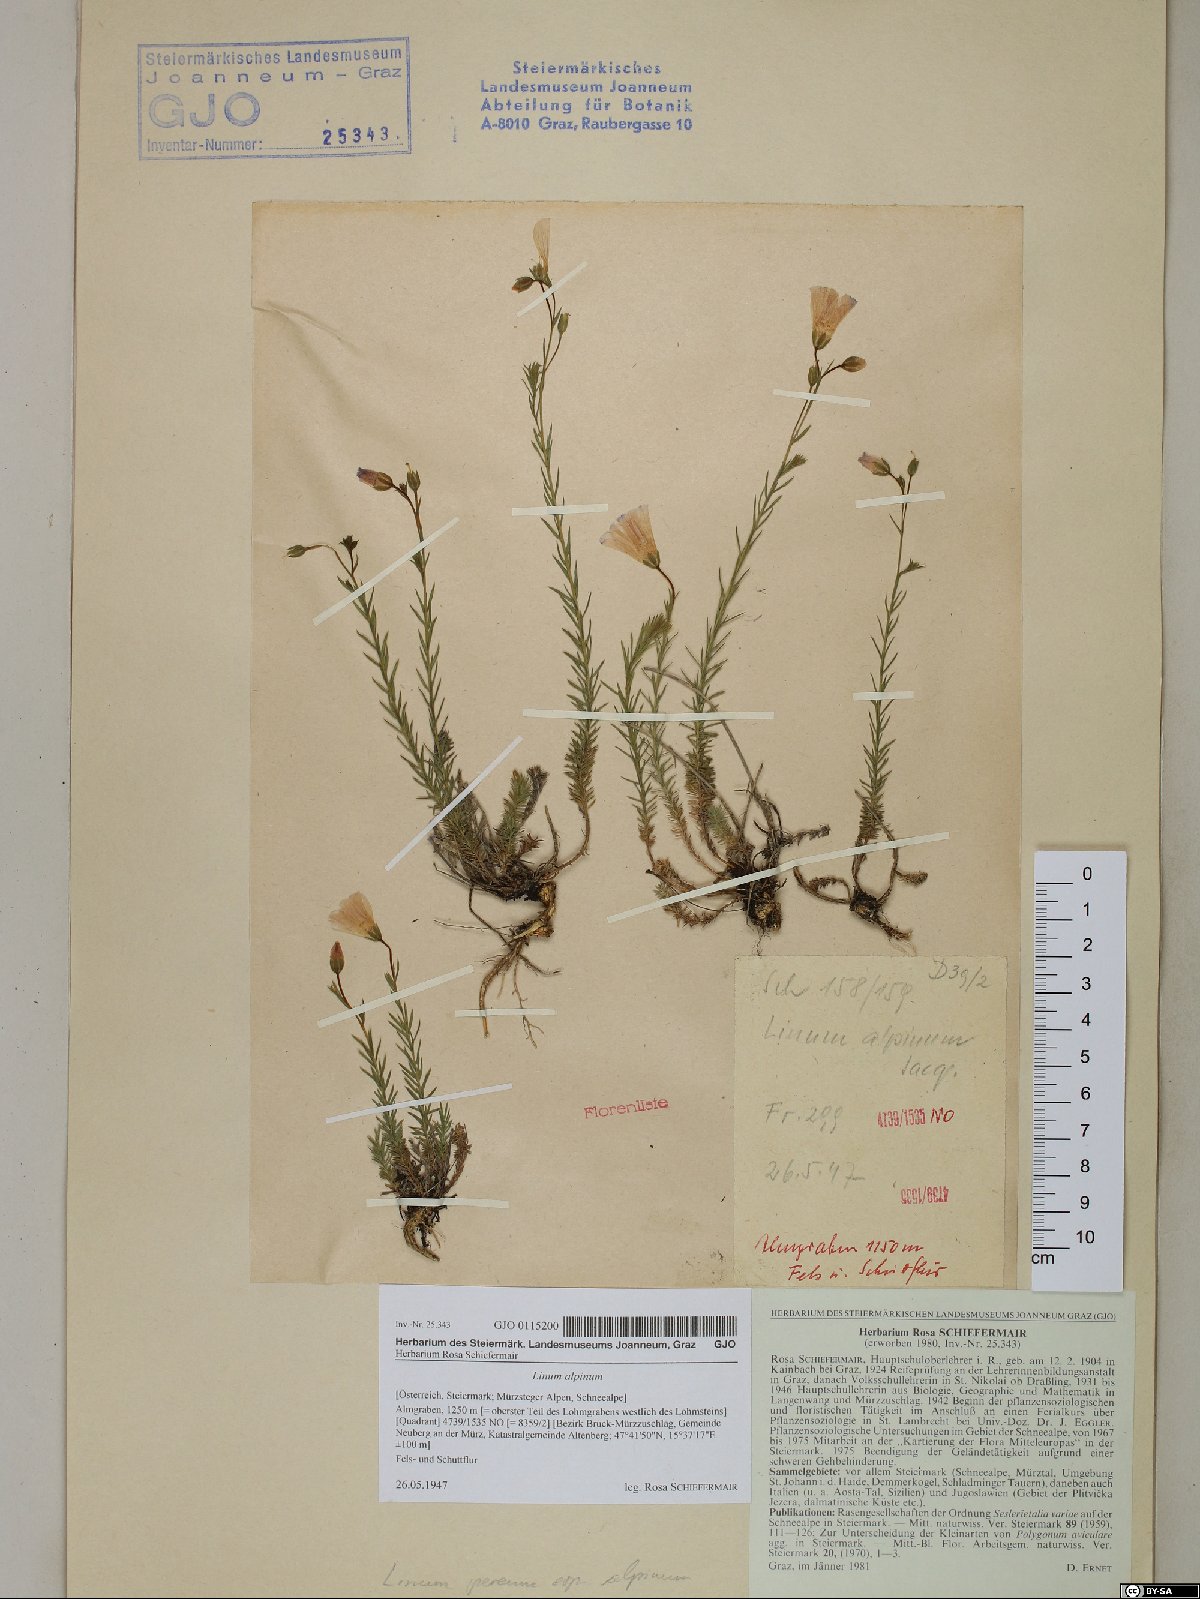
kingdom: Plantae
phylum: Tracheophyta
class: Magnoliopsida
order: Malpighiales
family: Linaceae
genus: Linum
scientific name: Linum alpinum
